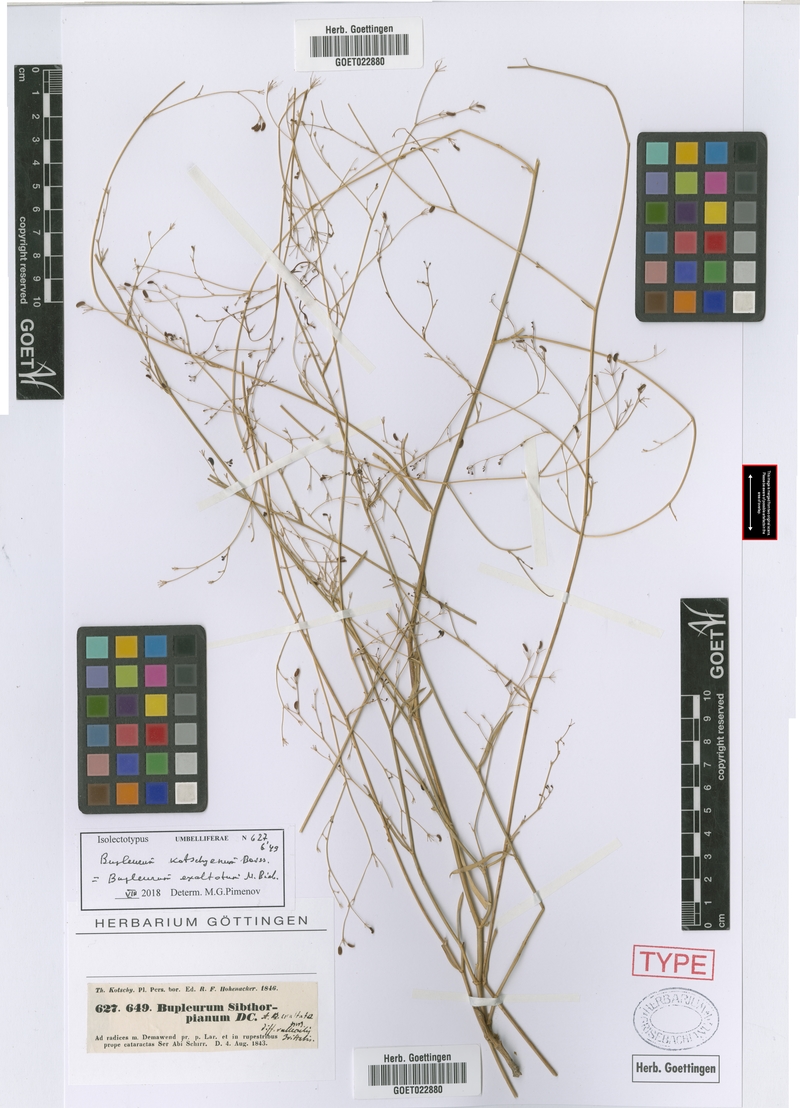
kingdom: Plantae
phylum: Tracheophyta
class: Magnoliopsida
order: Apiales
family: Apiaceae
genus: Bupleurum
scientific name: Bupleurum exaltatum
